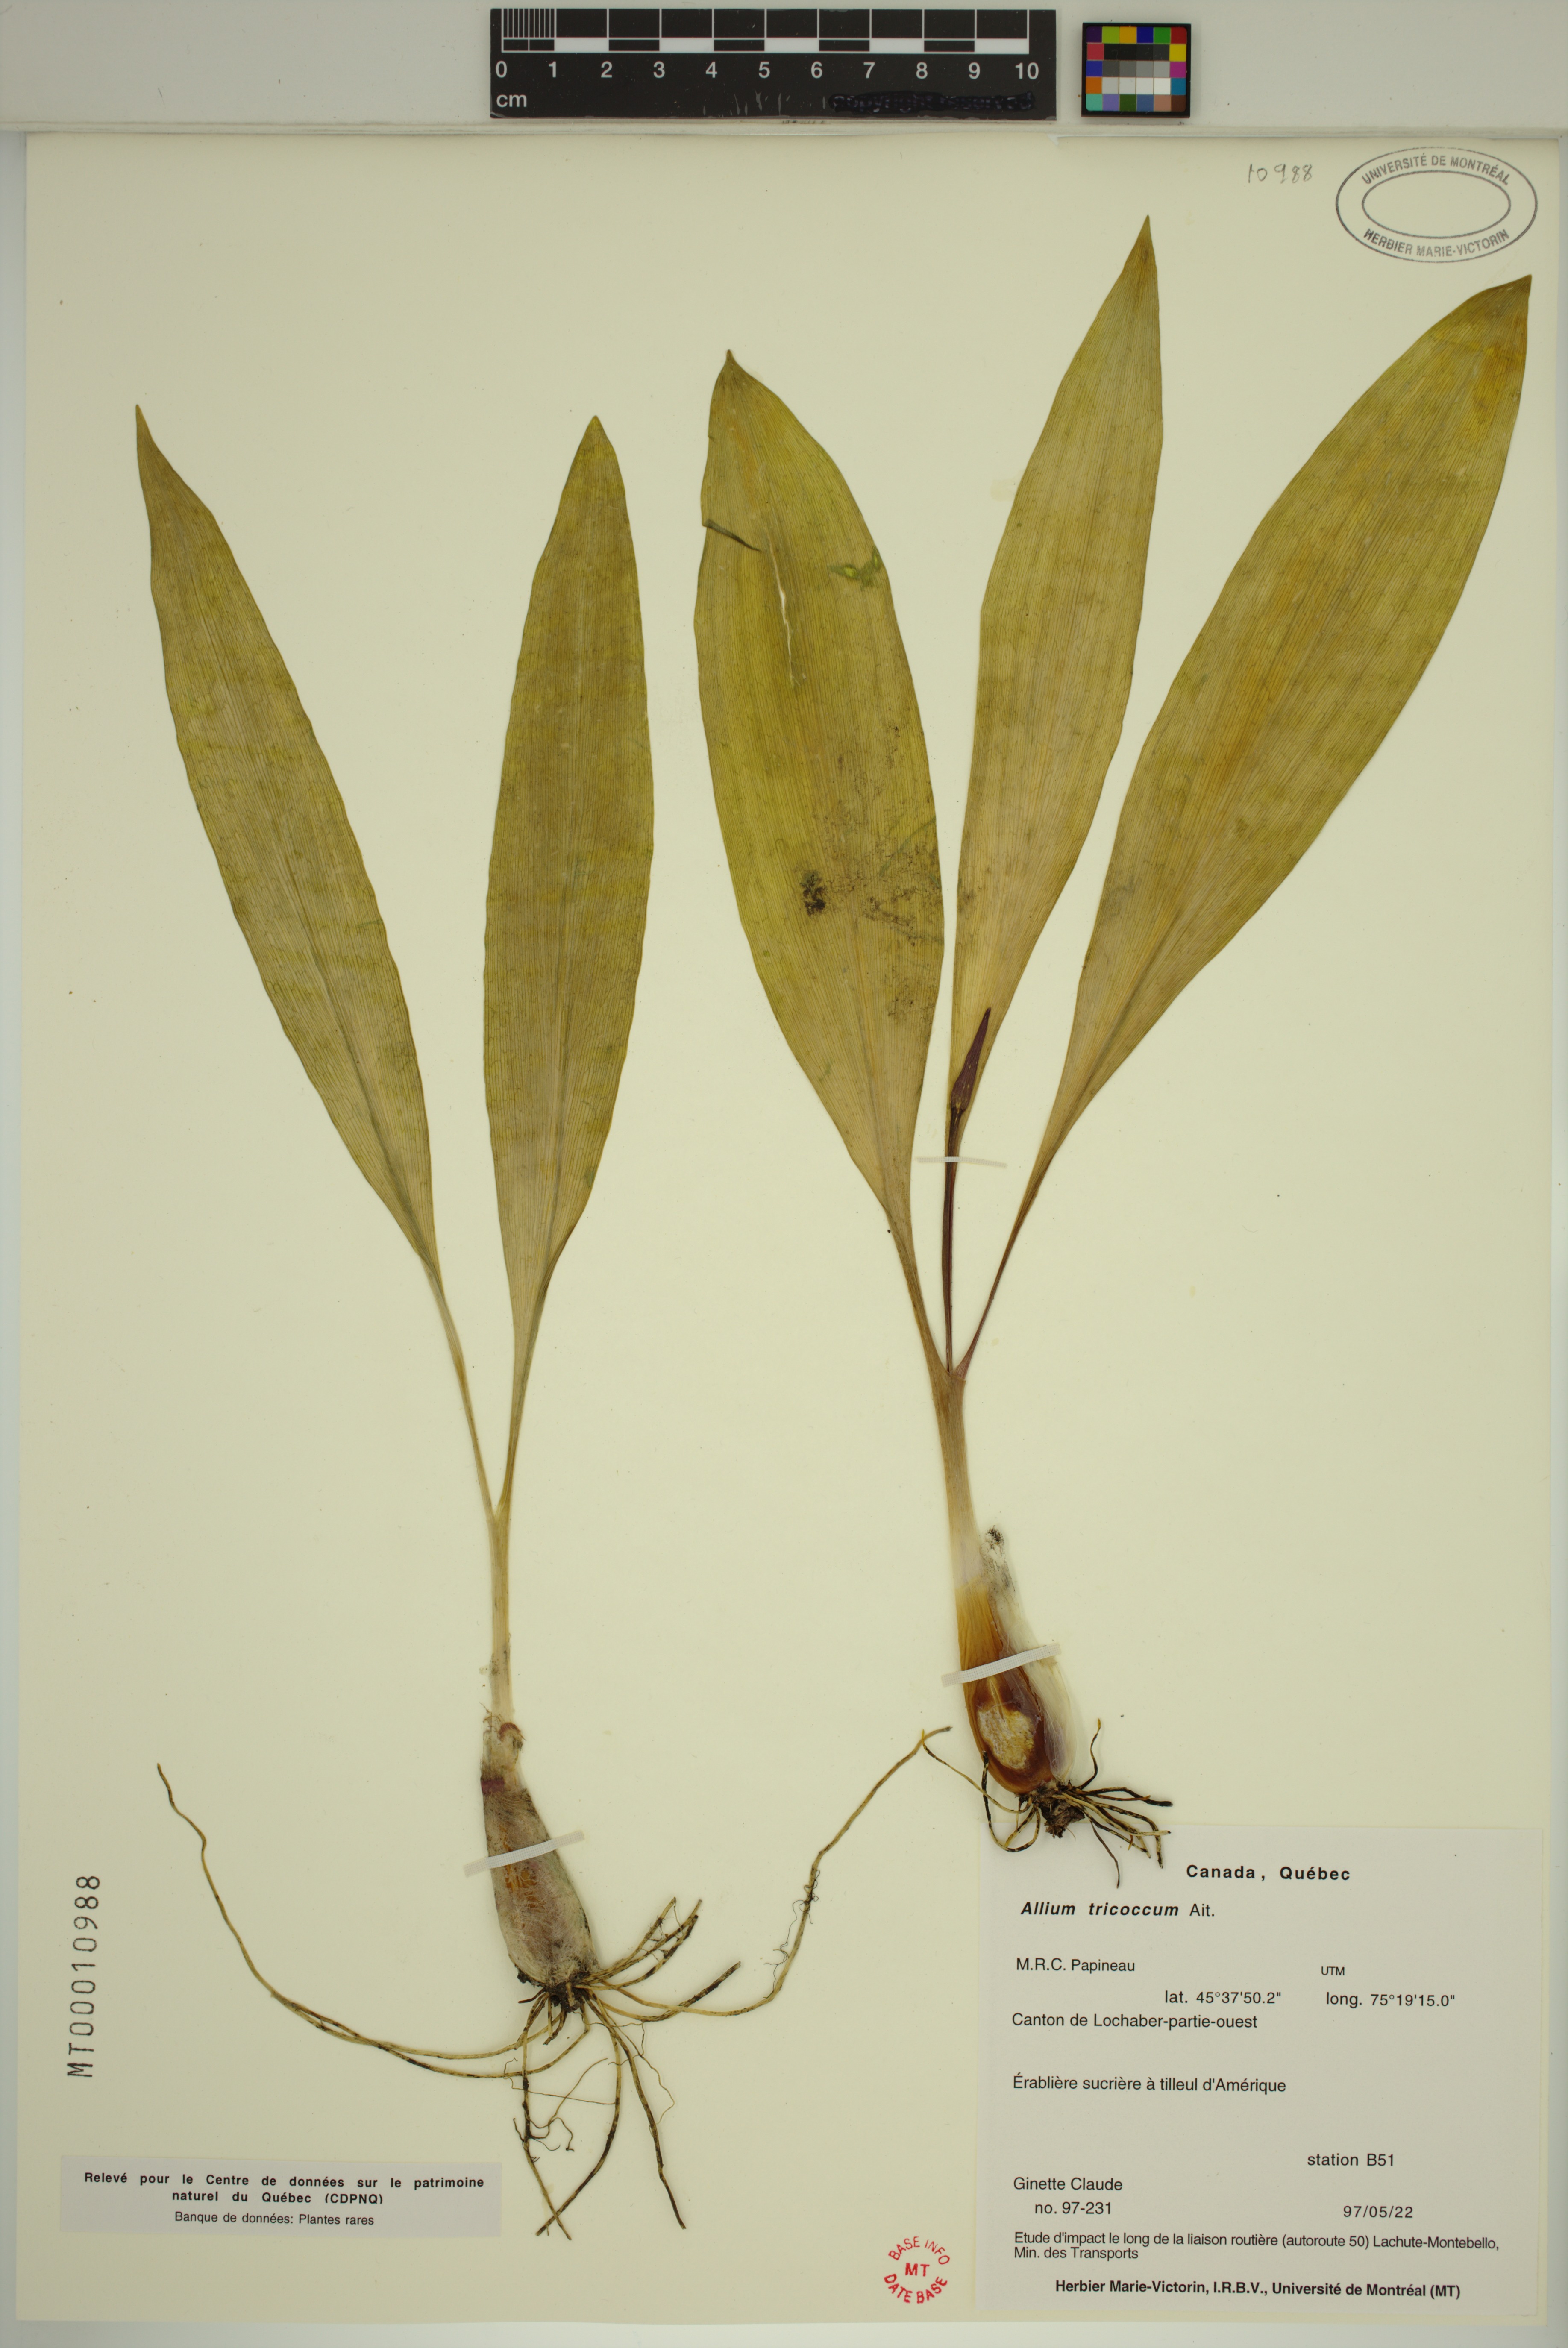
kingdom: Plantae
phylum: Tracheophyta
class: Liliopsida
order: Asparagales
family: Amaryllidaceae
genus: Allium
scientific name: Allium tricoccum
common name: Ramp
